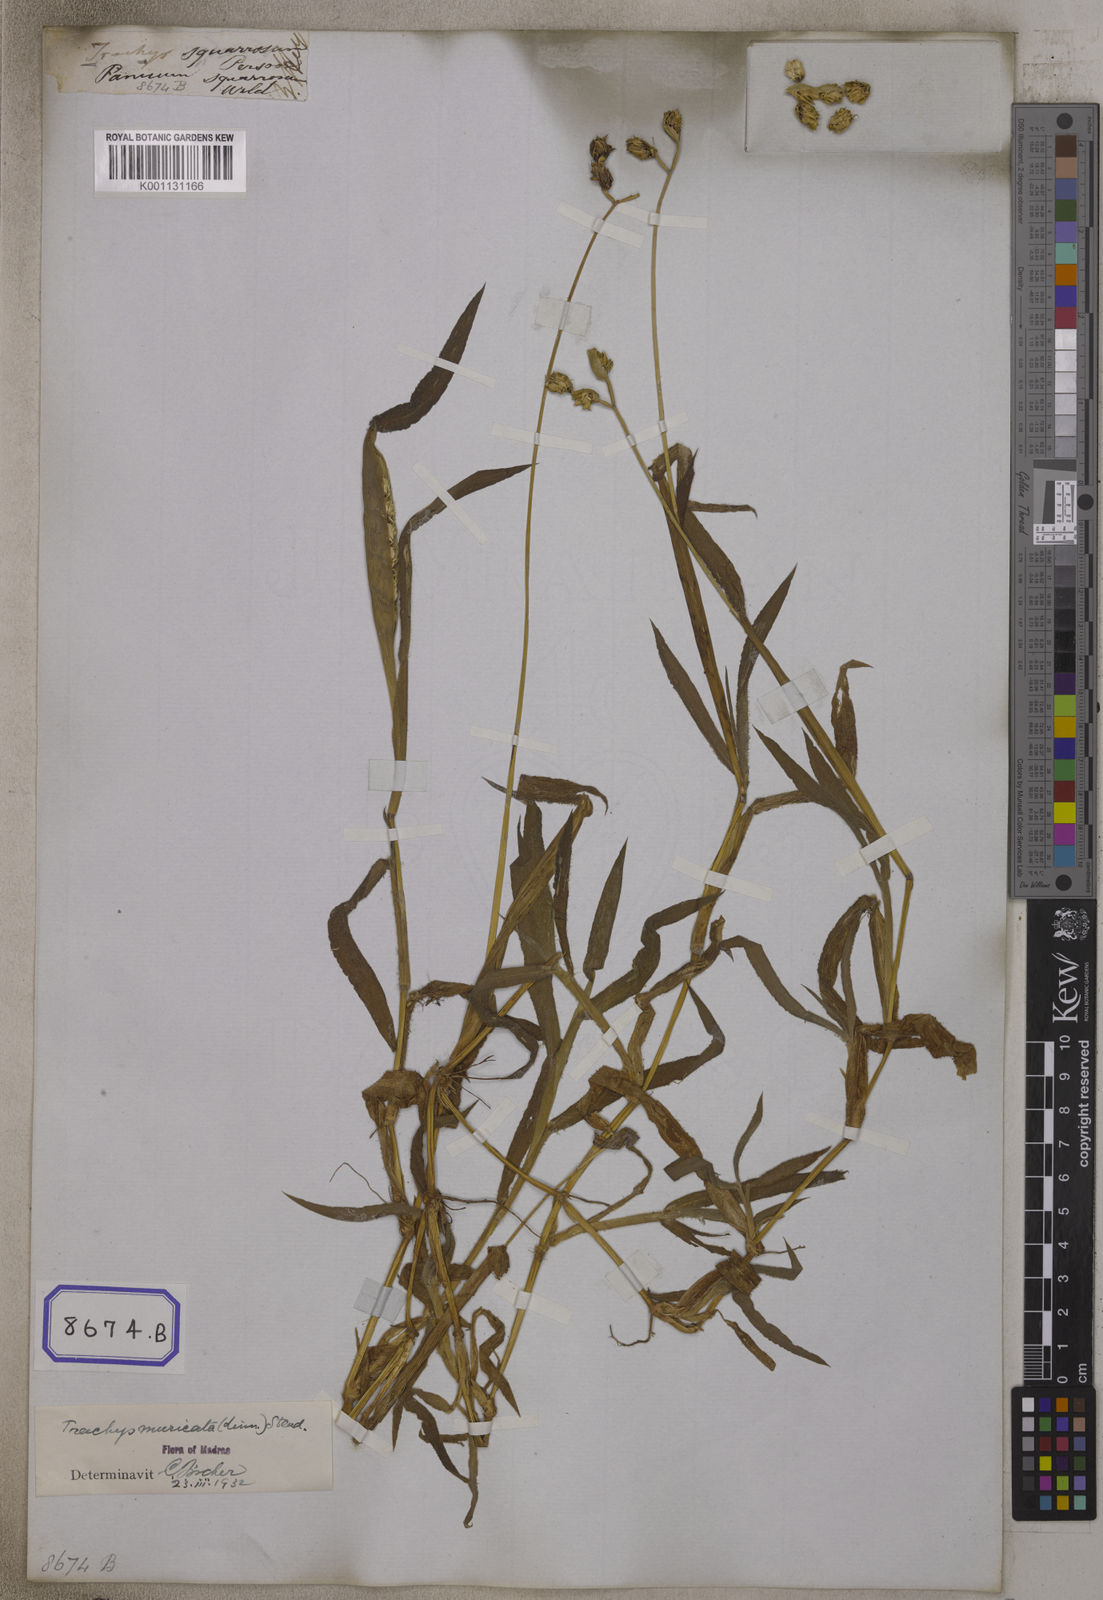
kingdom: Plantae
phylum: Tracheophyta
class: Liliopsida
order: Poales
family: Poaceae
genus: Trachys
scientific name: Trachys
